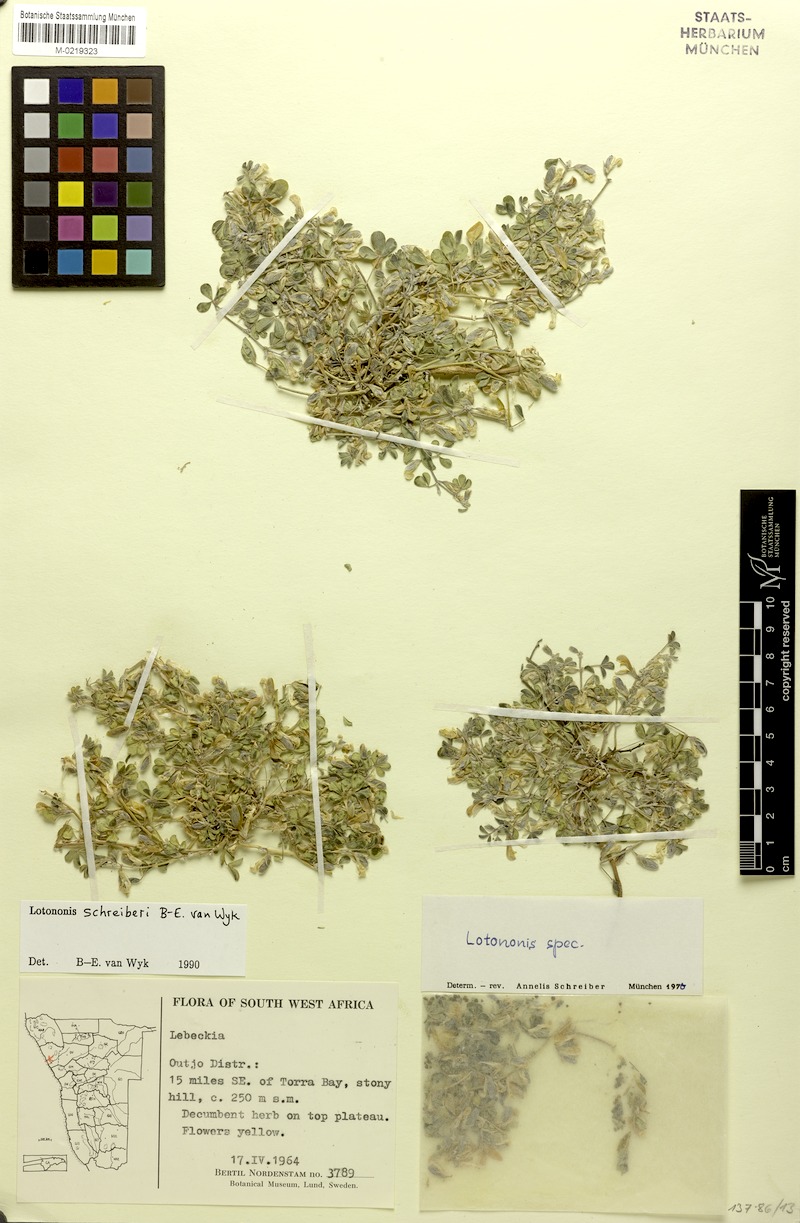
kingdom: Plantae
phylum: Tracheophyta
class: Magnoliopsida
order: Fabales
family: Fabaceae
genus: Lotononis
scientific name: Lotononis schreiberi
